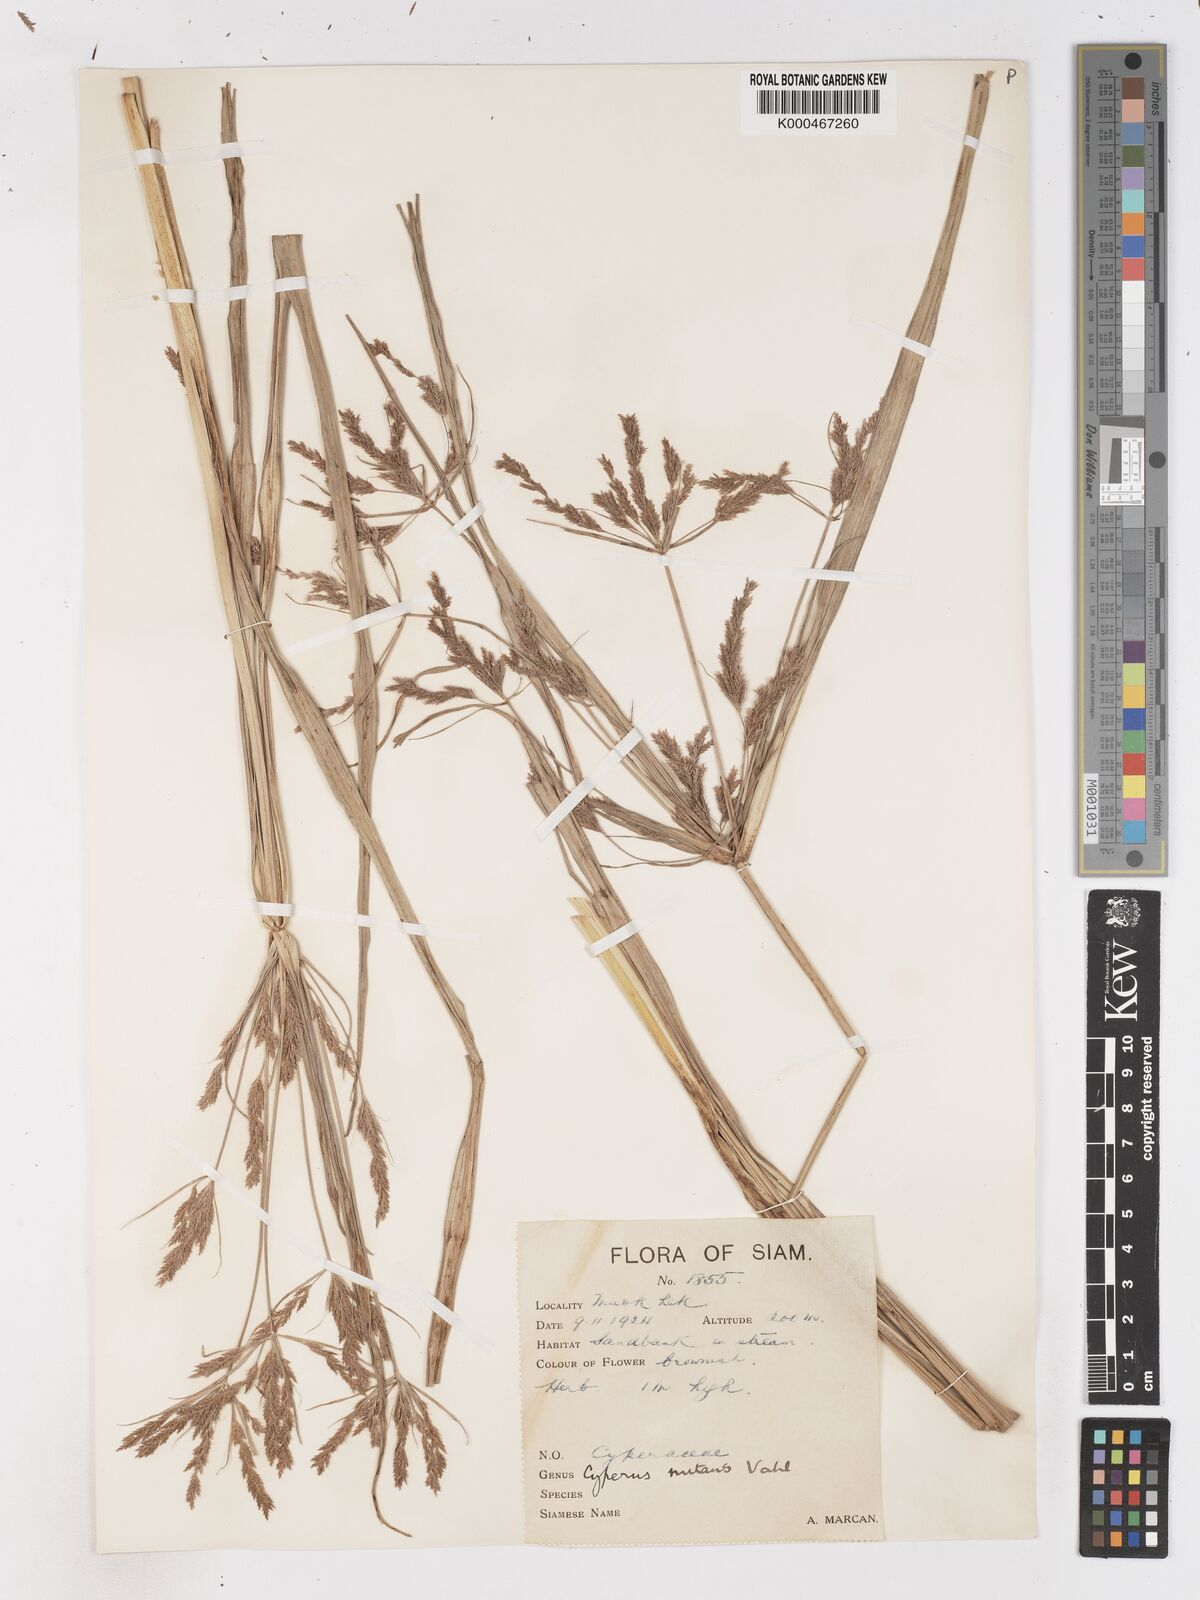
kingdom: Plantae
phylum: Tracheophyta
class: Liliopsida
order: Poales
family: Cyperaceae
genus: Cyperus
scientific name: Cyperus nutans
